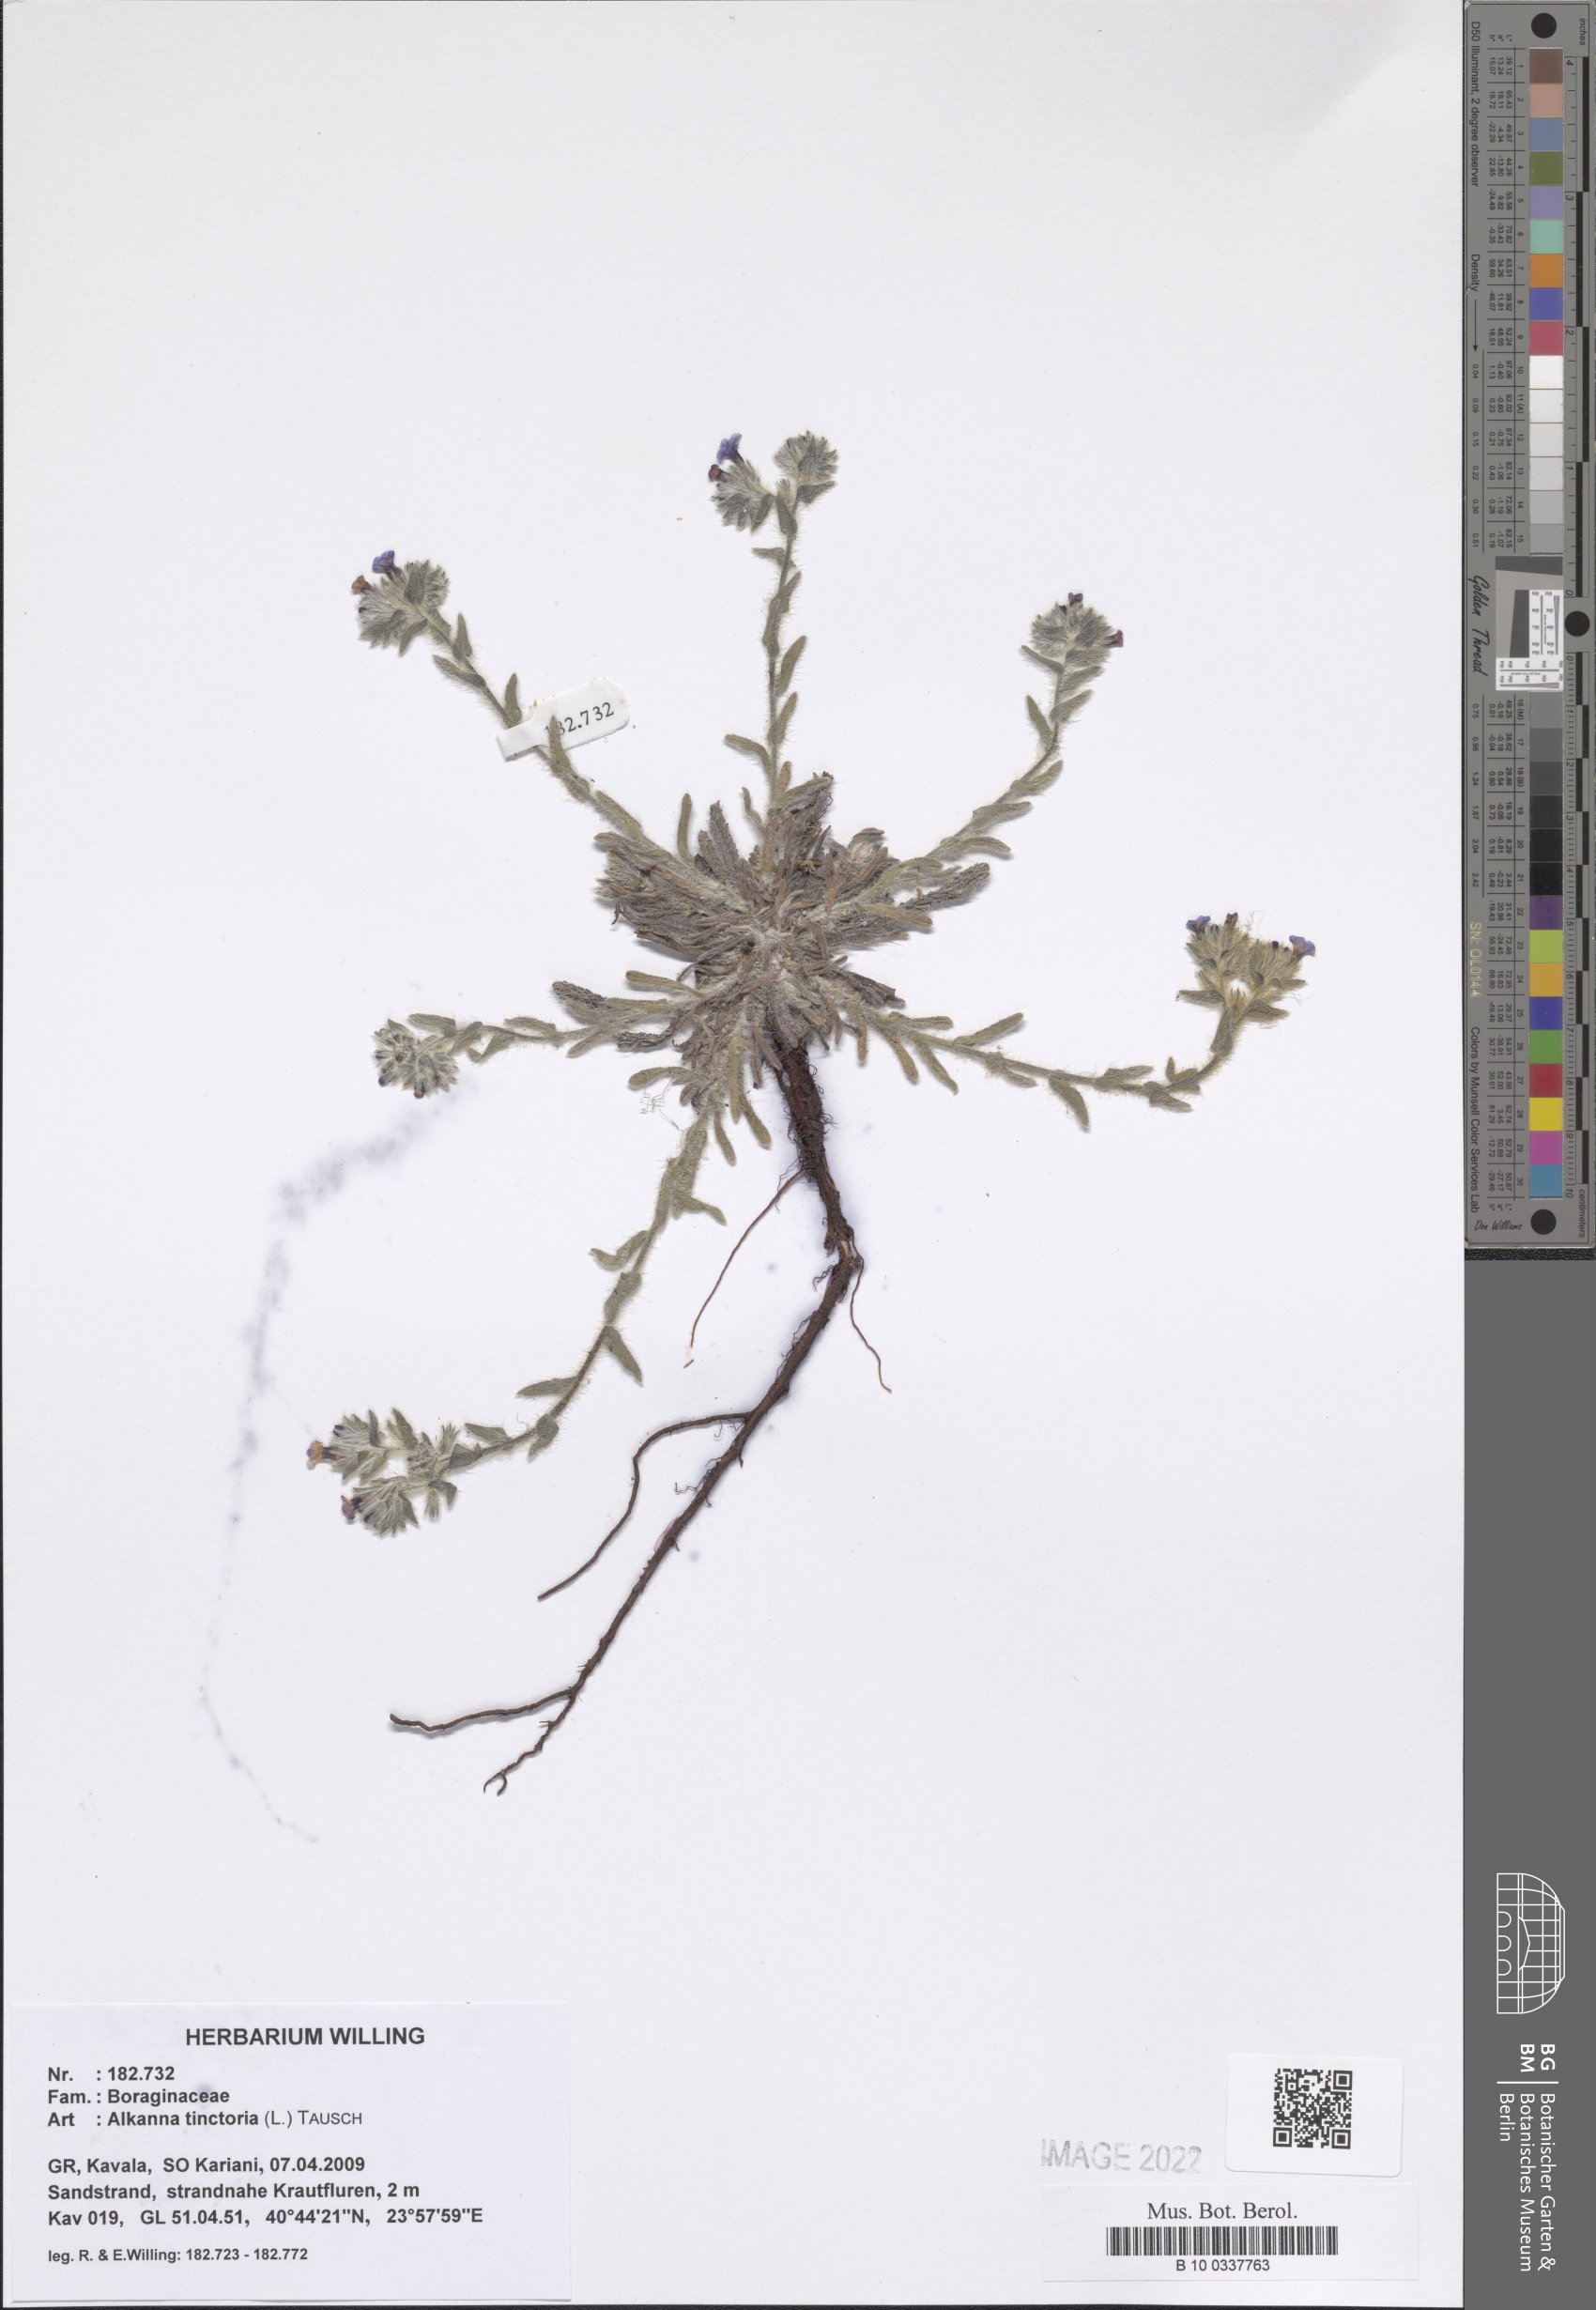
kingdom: Plantae
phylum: Tracheophyta
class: Magnoliopsida
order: Boraginales
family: Boraginaceae
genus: Alkanna
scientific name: Alkanna tinctoria
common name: Dyer's-alkanet
